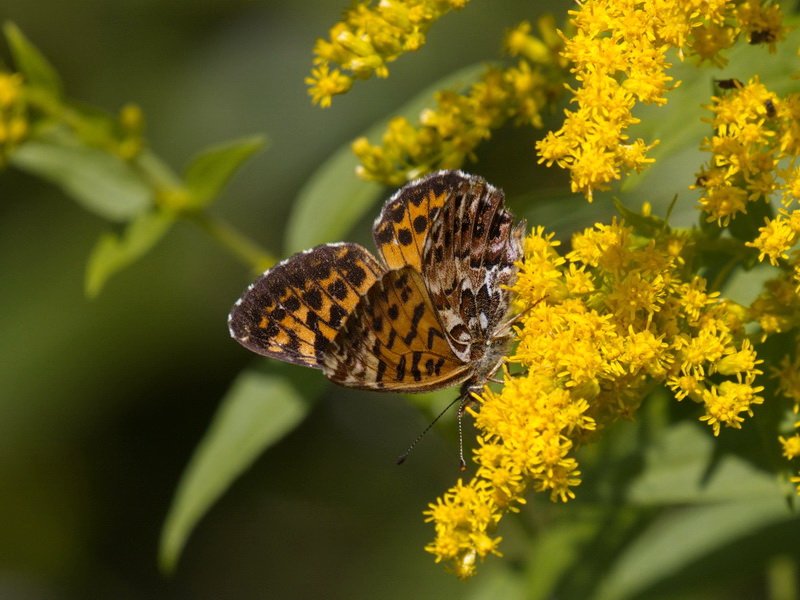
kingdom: Animalia
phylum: Arthropoda
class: Insecta
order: Lepidoptera
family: Nymphalidae
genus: Boloria
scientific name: Boloria chariclea
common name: Arctic Fritillary
